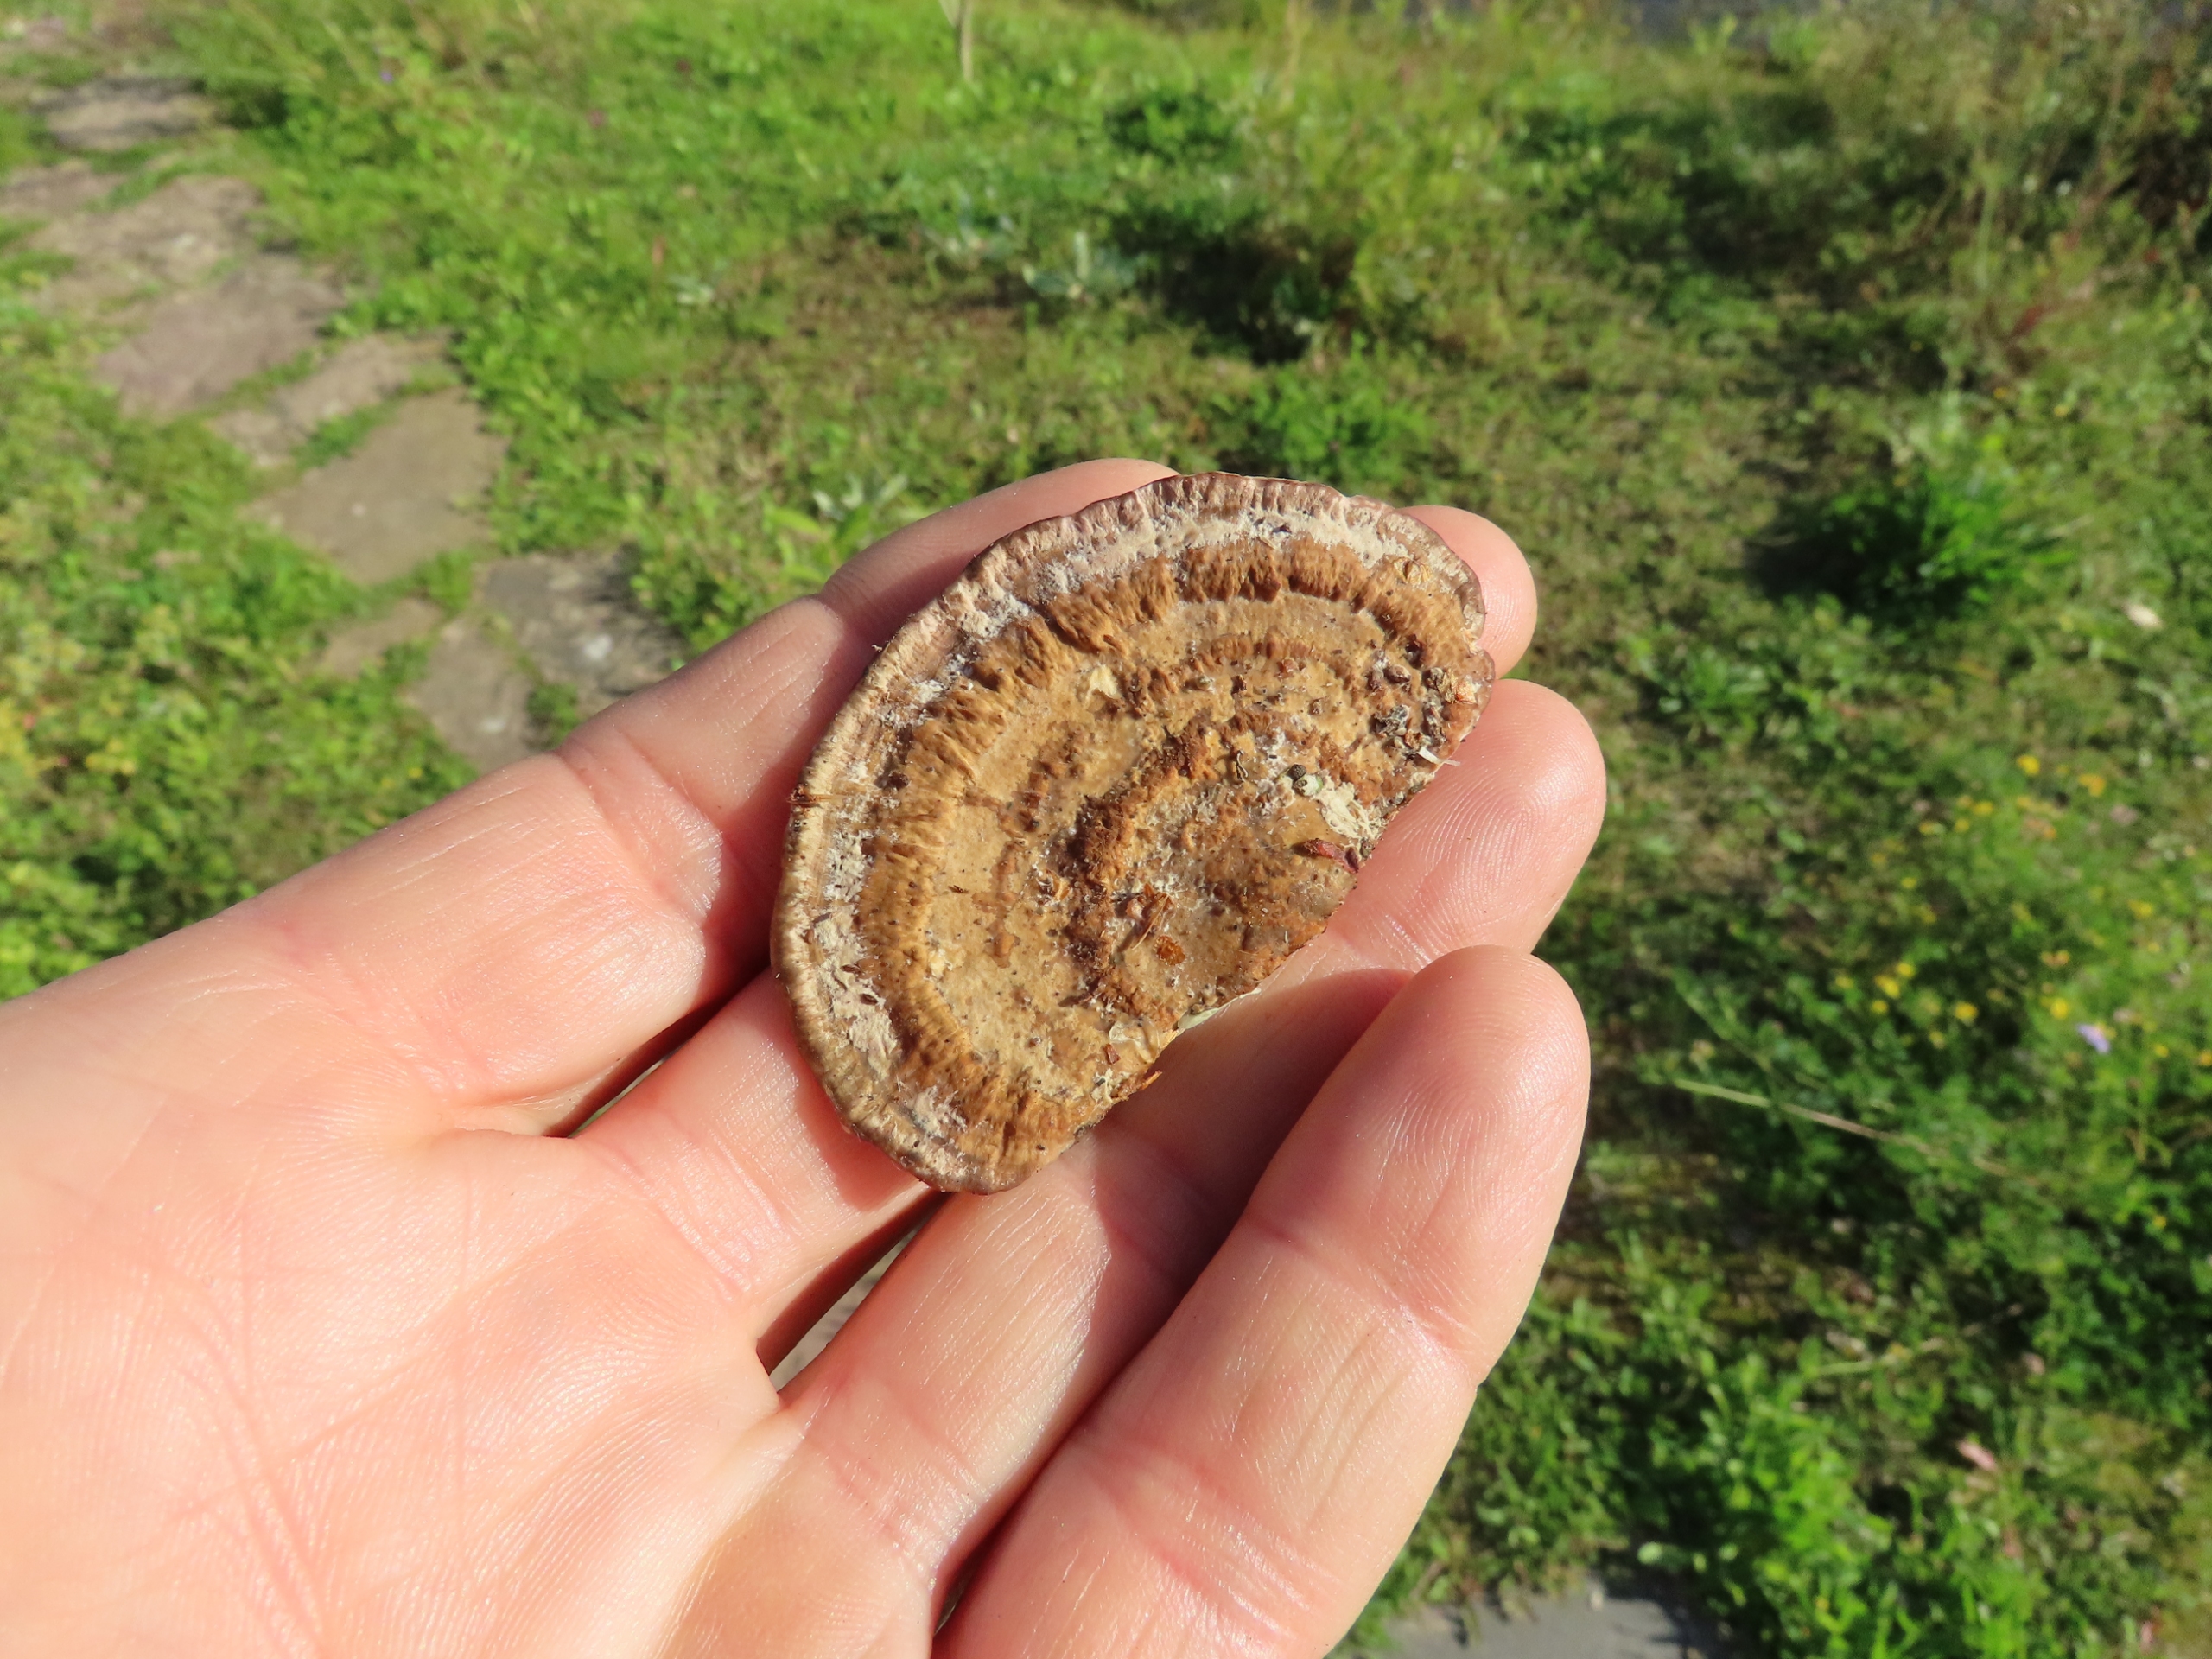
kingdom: Fungi
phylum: Basidiomycota
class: Agaricomycetes
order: Polyporales
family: Polyporaceae
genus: Daedaleopsis
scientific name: Daedaleopsis confragosa
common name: Rødmende læderporesvamp
